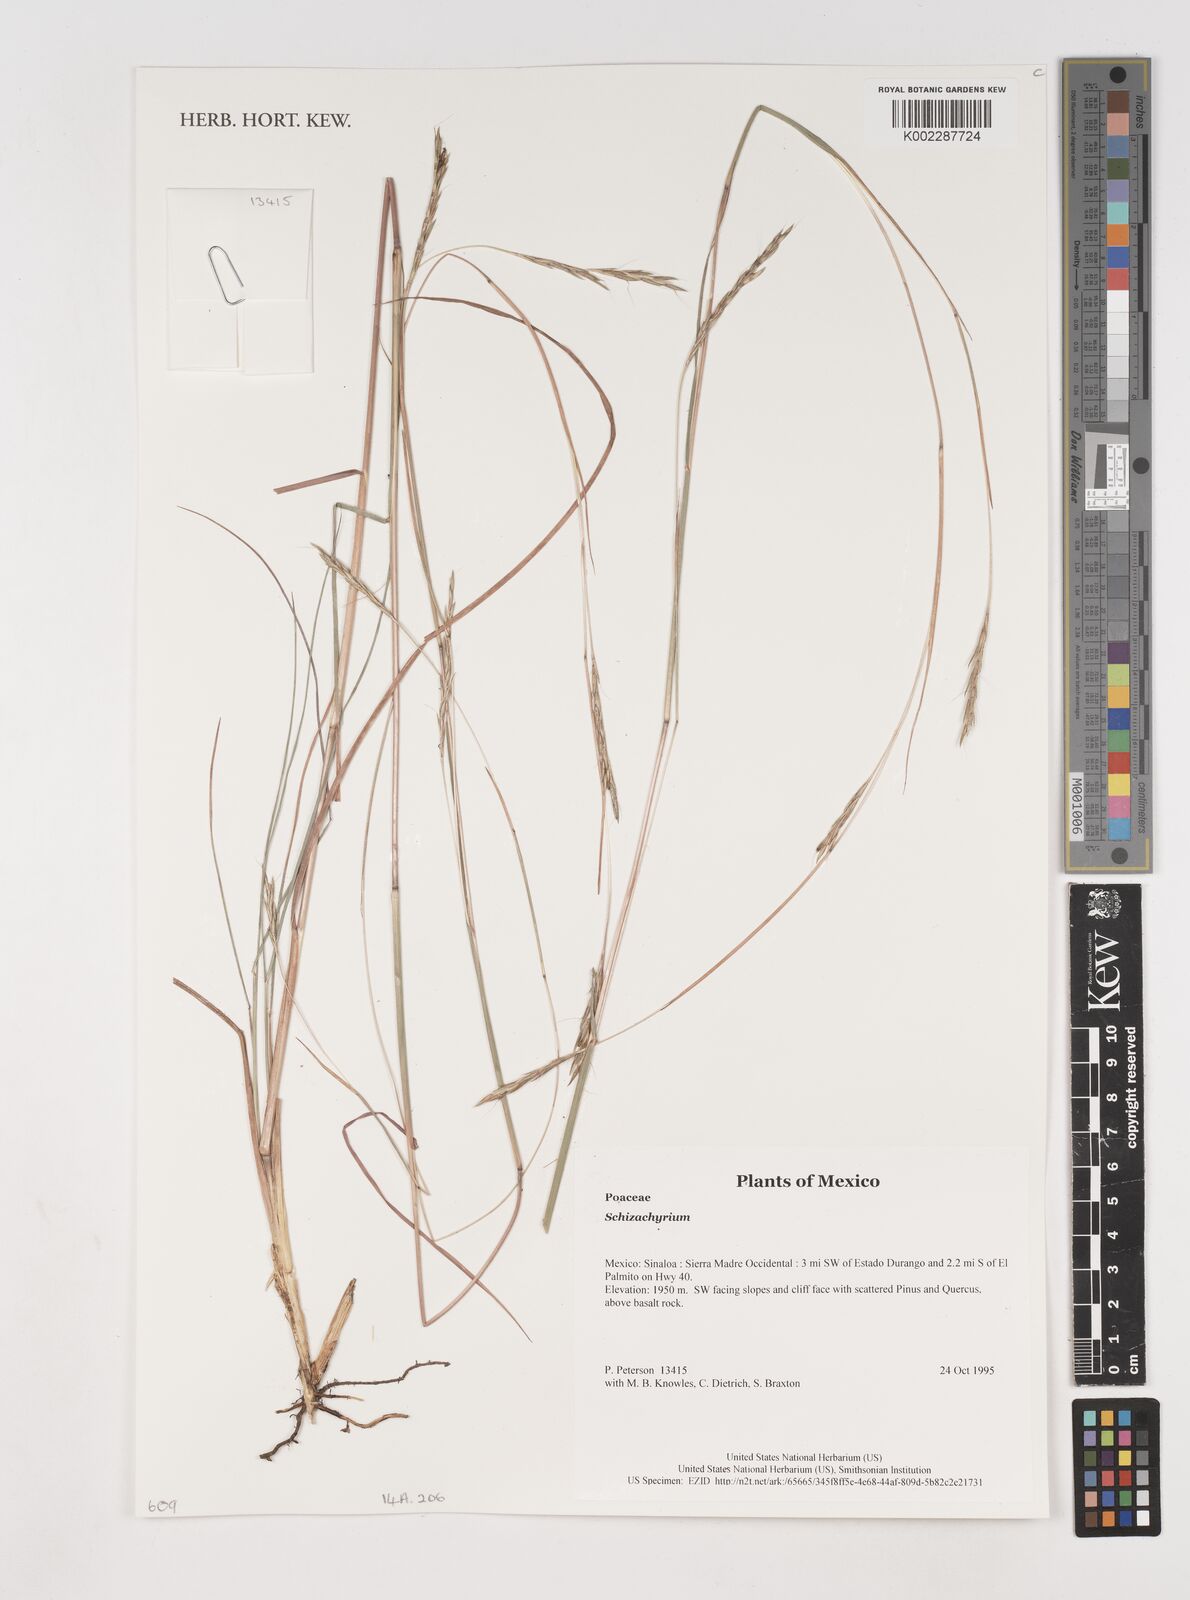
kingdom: Plantae
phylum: Tracheophyta
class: Liliopsida
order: Poales
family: Poaceae
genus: Schizachyrium
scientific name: Schizachyrium
